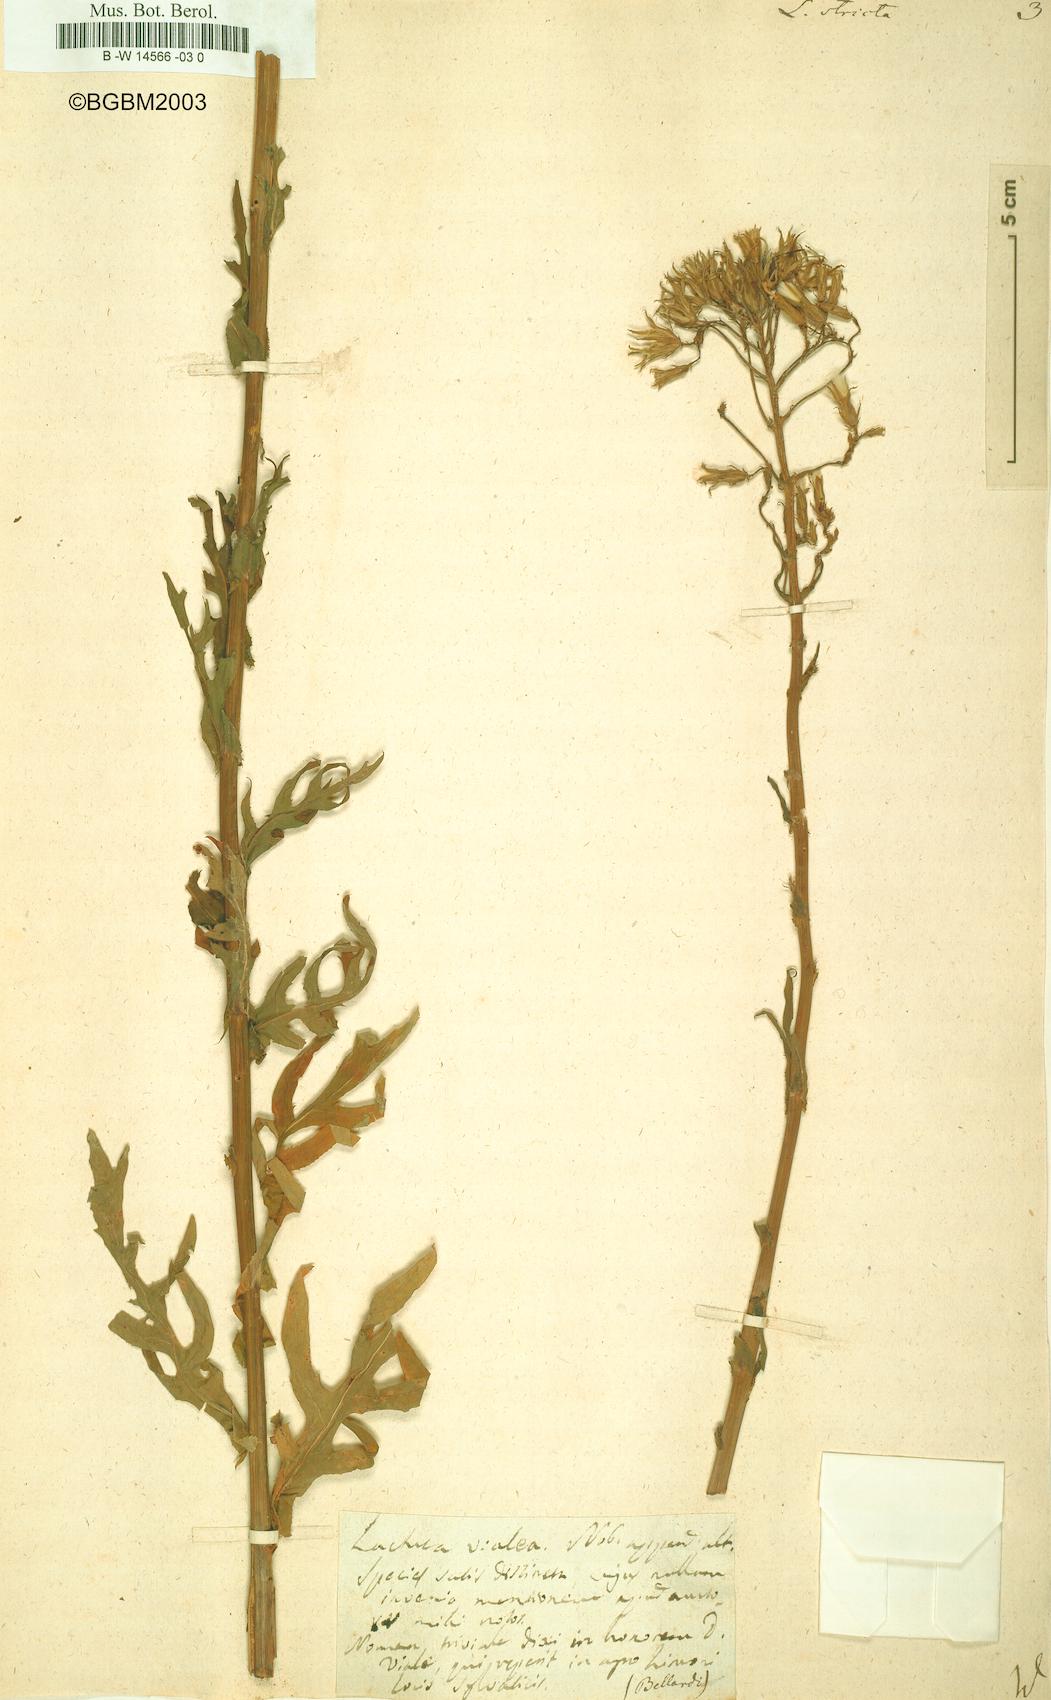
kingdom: Plantae
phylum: Tracheophyta
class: Magnoliopsida
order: Asterales
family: Asteraceae
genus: Lactuca
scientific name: Lactuca quercina
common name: Wild lettuce
